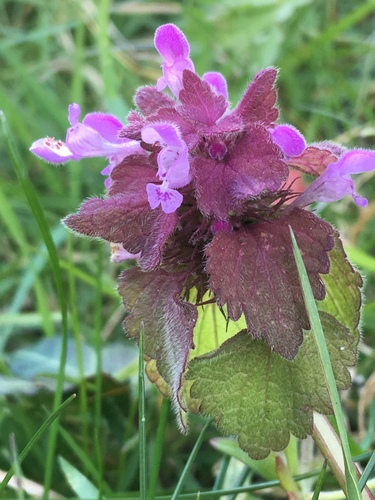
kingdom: Plantae
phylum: Tracheophyta
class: Magnoliopsida
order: Lamiales
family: Lamiaceae
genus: Lamium
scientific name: Lamium purpureum
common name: Red dead-nettle
